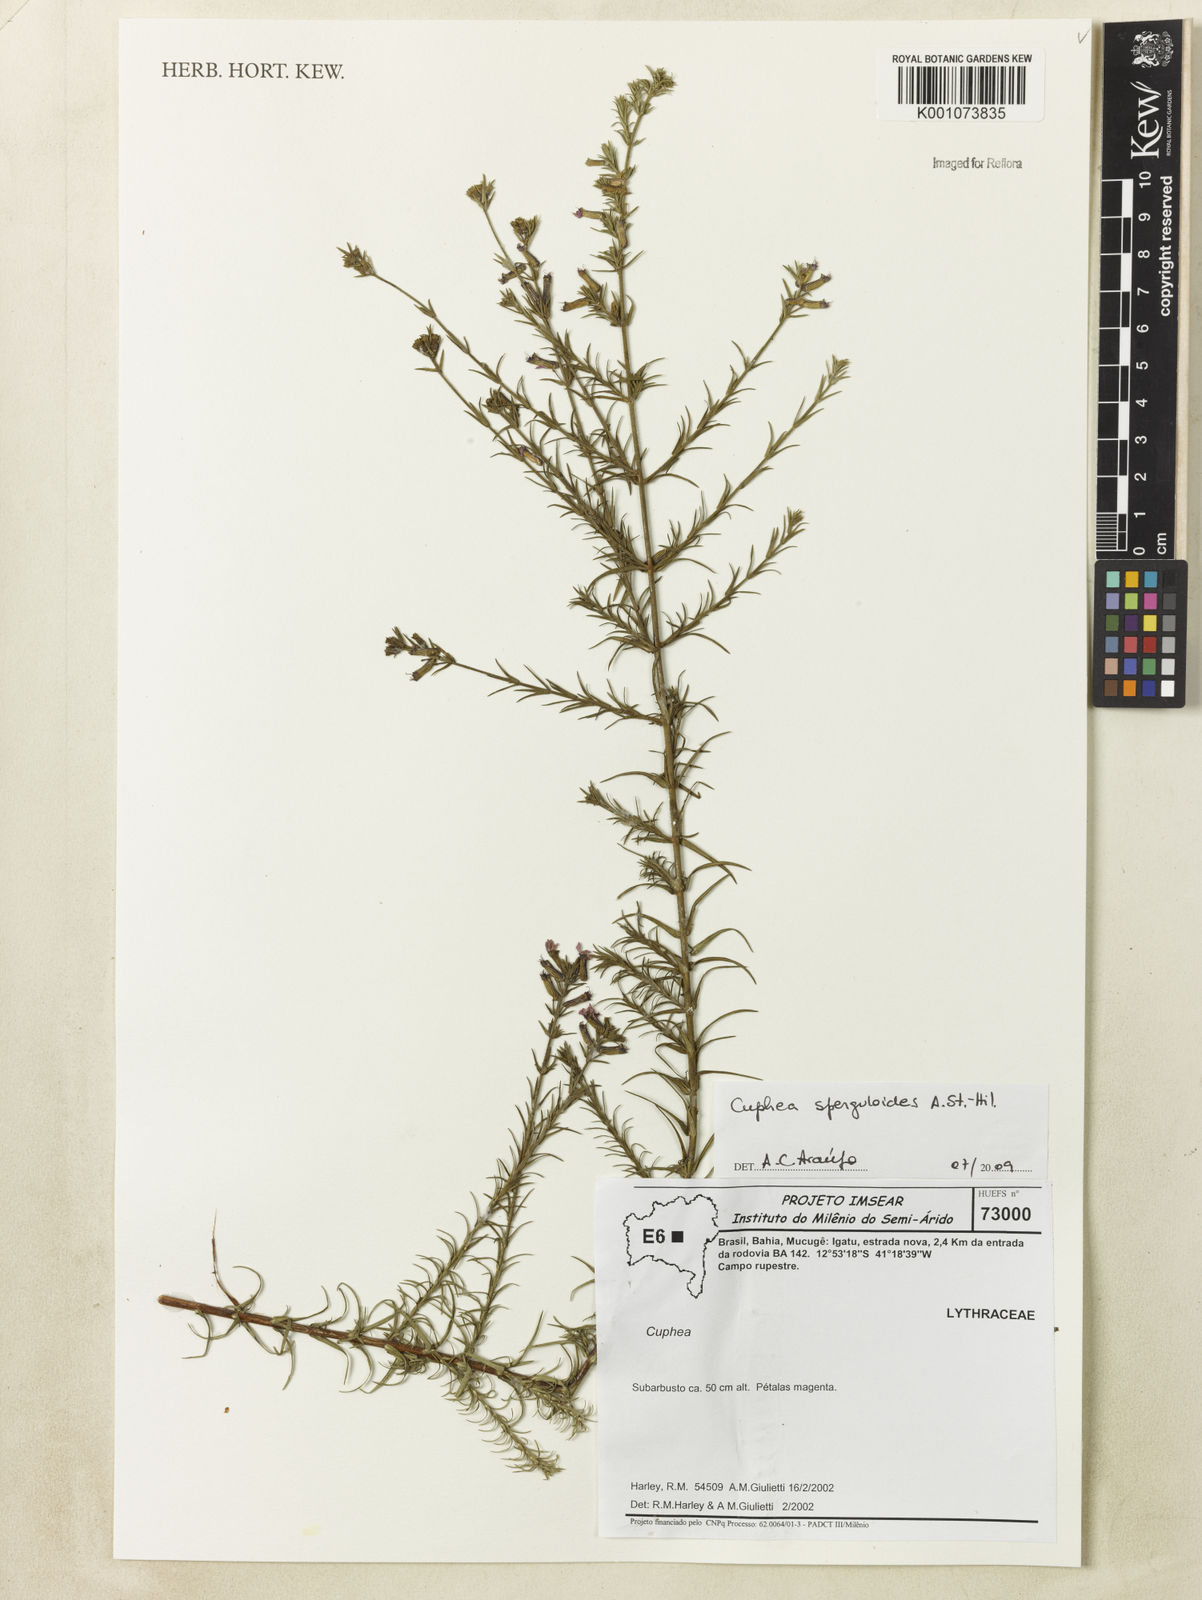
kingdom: Plantae
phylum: Tracheophyta
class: Magnoliopsida
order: Myrtales
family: Lythraceae
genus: Cuphea
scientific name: Cuphea sperguloides
